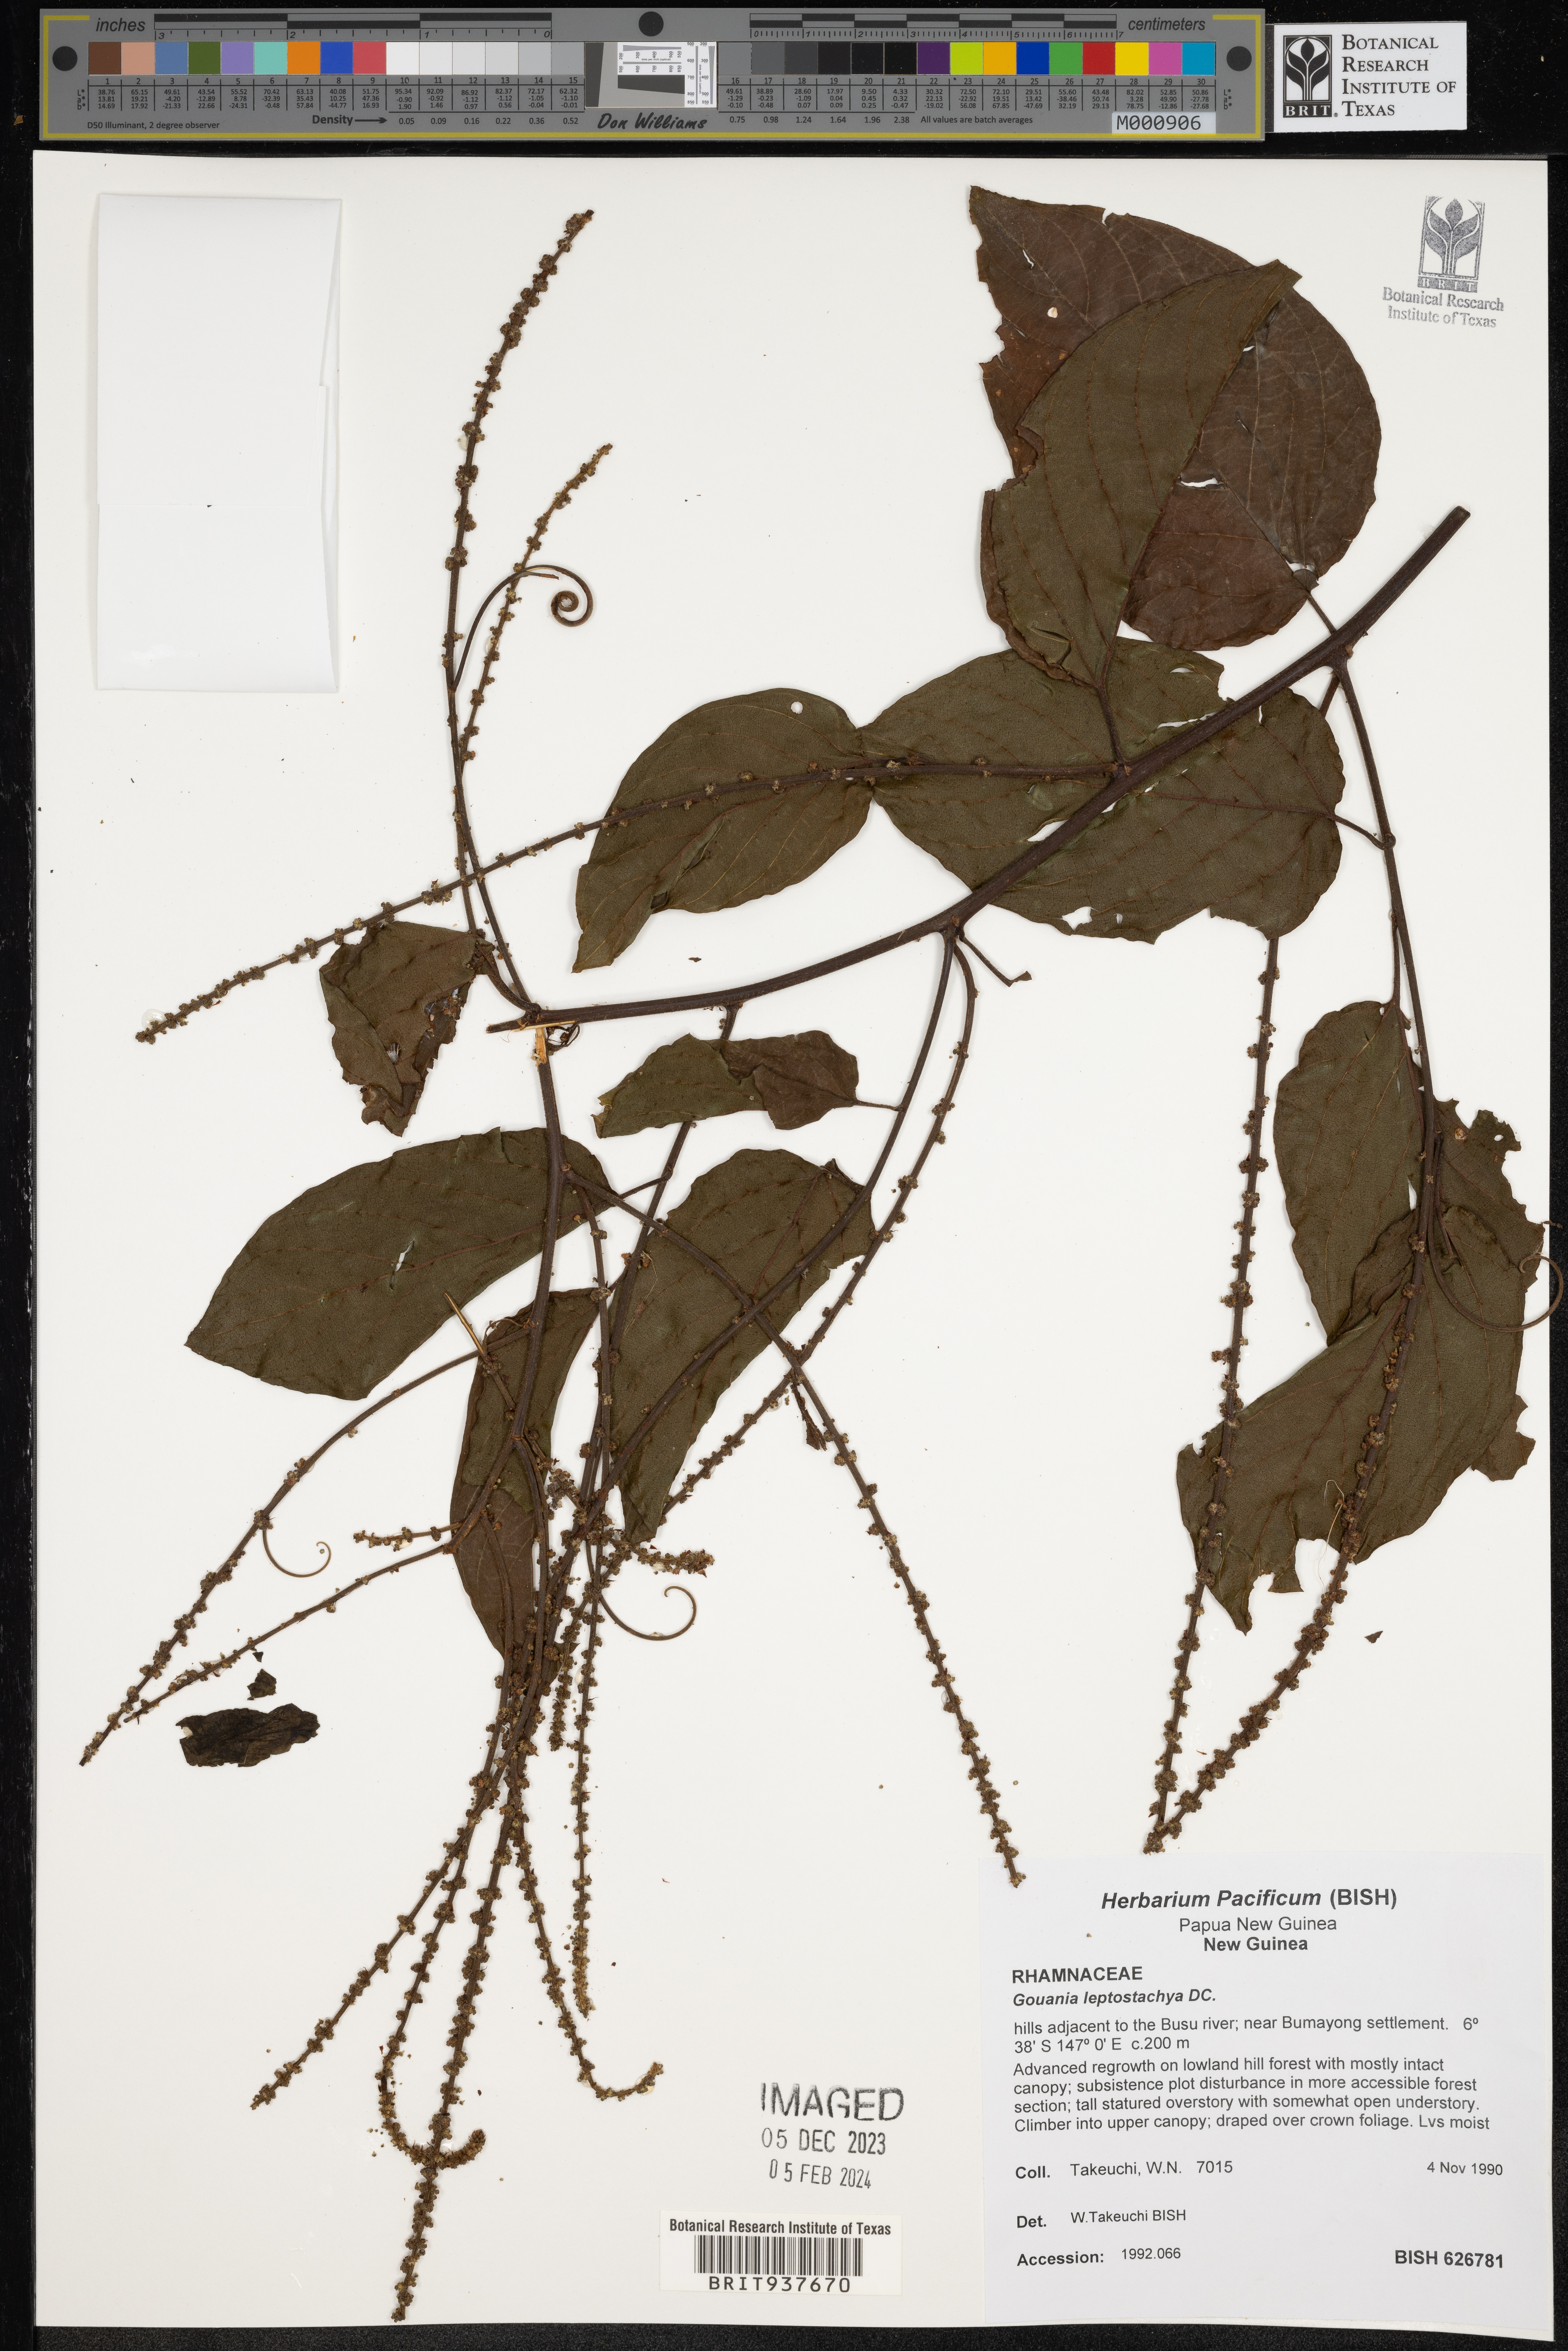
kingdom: Plantae
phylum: Tracheophyta
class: Magnoliopsida
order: Rosales
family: Rhamnaceae
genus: Gouania
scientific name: Gouania
